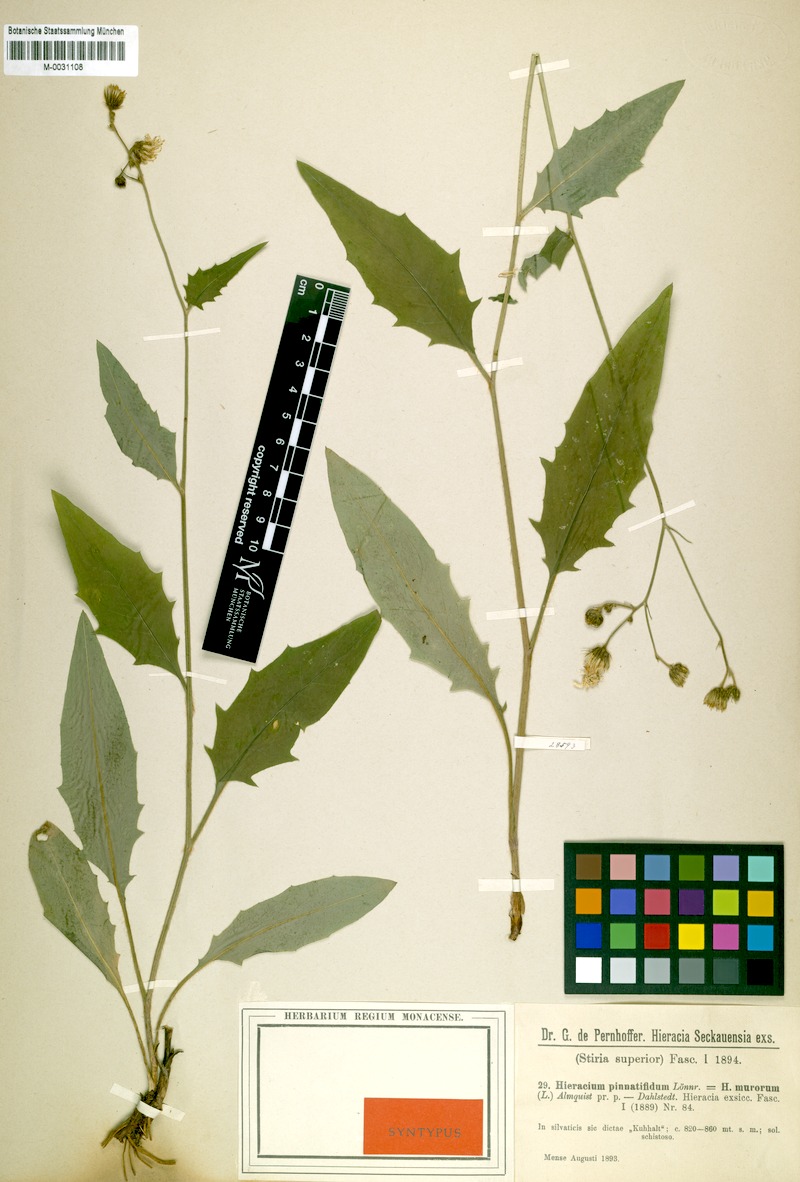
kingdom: Plantae
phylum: Tracheophyta
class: Magnoliopsida
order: Asterales
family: Asteraceae
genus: Hieracium
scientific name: Hieracium lachenalii
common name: Common hawkweed
